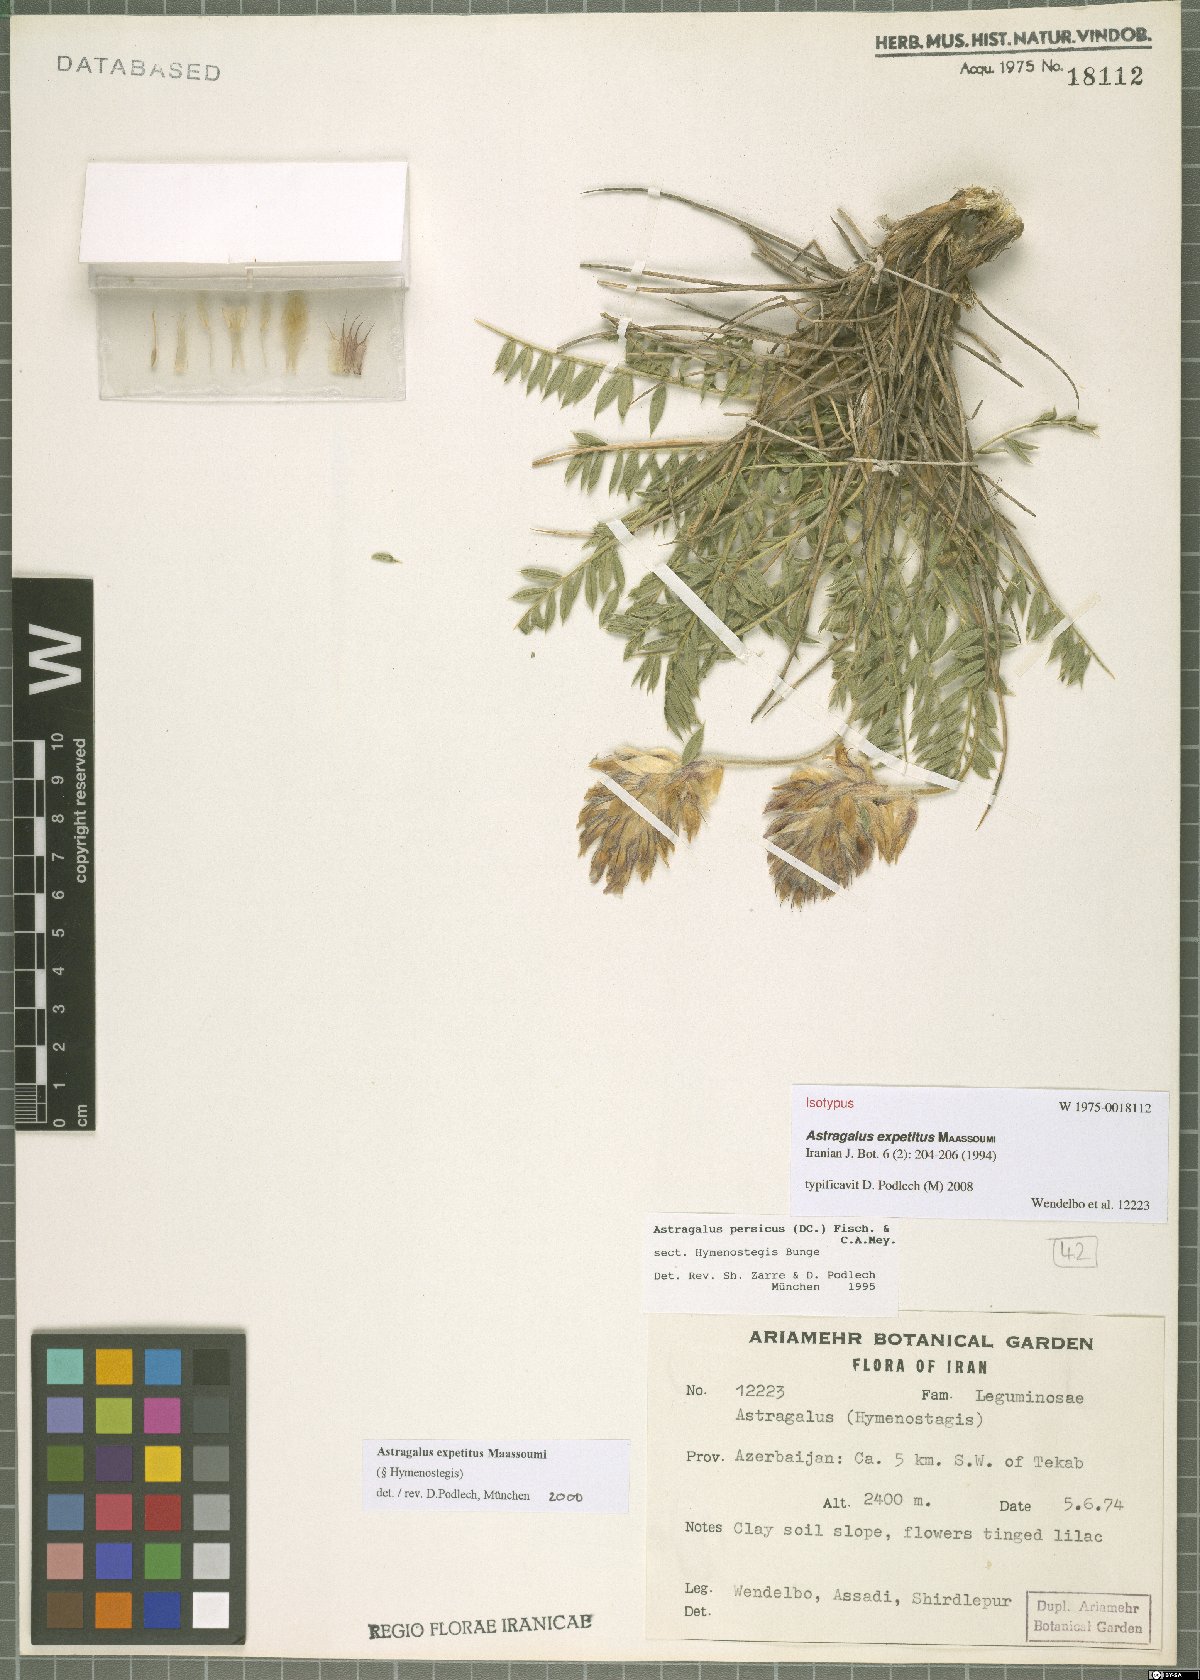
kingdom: Plantae
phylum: Tracheophyta
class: Magnoliopsida
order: Fabales
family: Fabaceae
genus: Astragalus
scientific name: Astragalus expetitus
